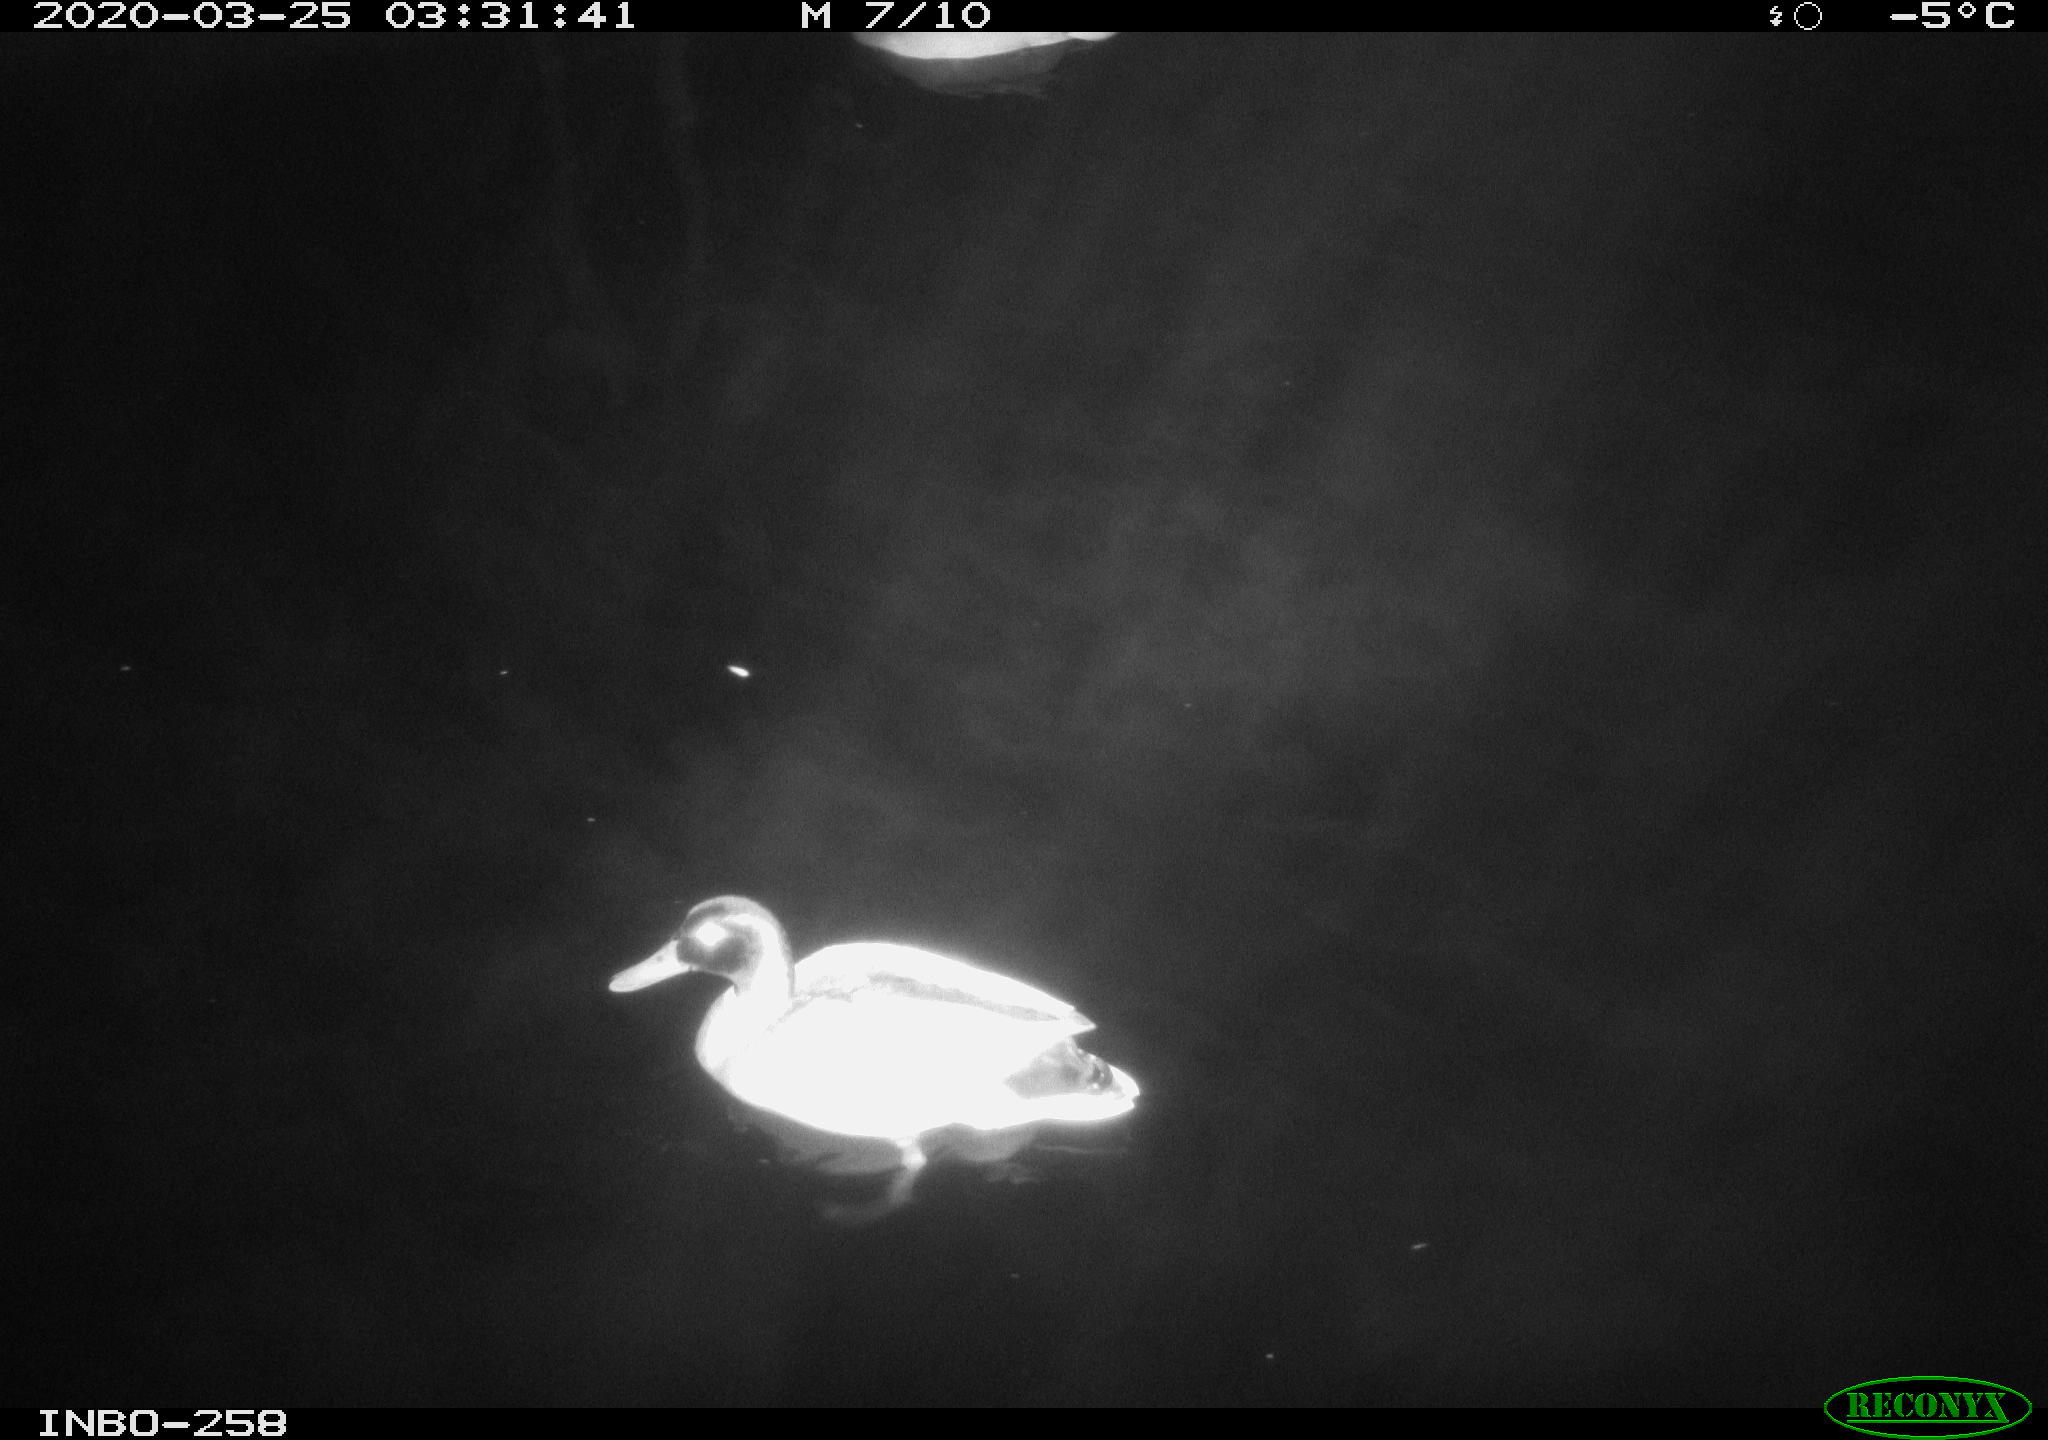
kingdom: Animalia
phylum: Chordata
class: Aves
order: Anseriformes
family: Anatidae
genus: Anas
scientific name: Anas platyrhynchos
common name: Mallard
